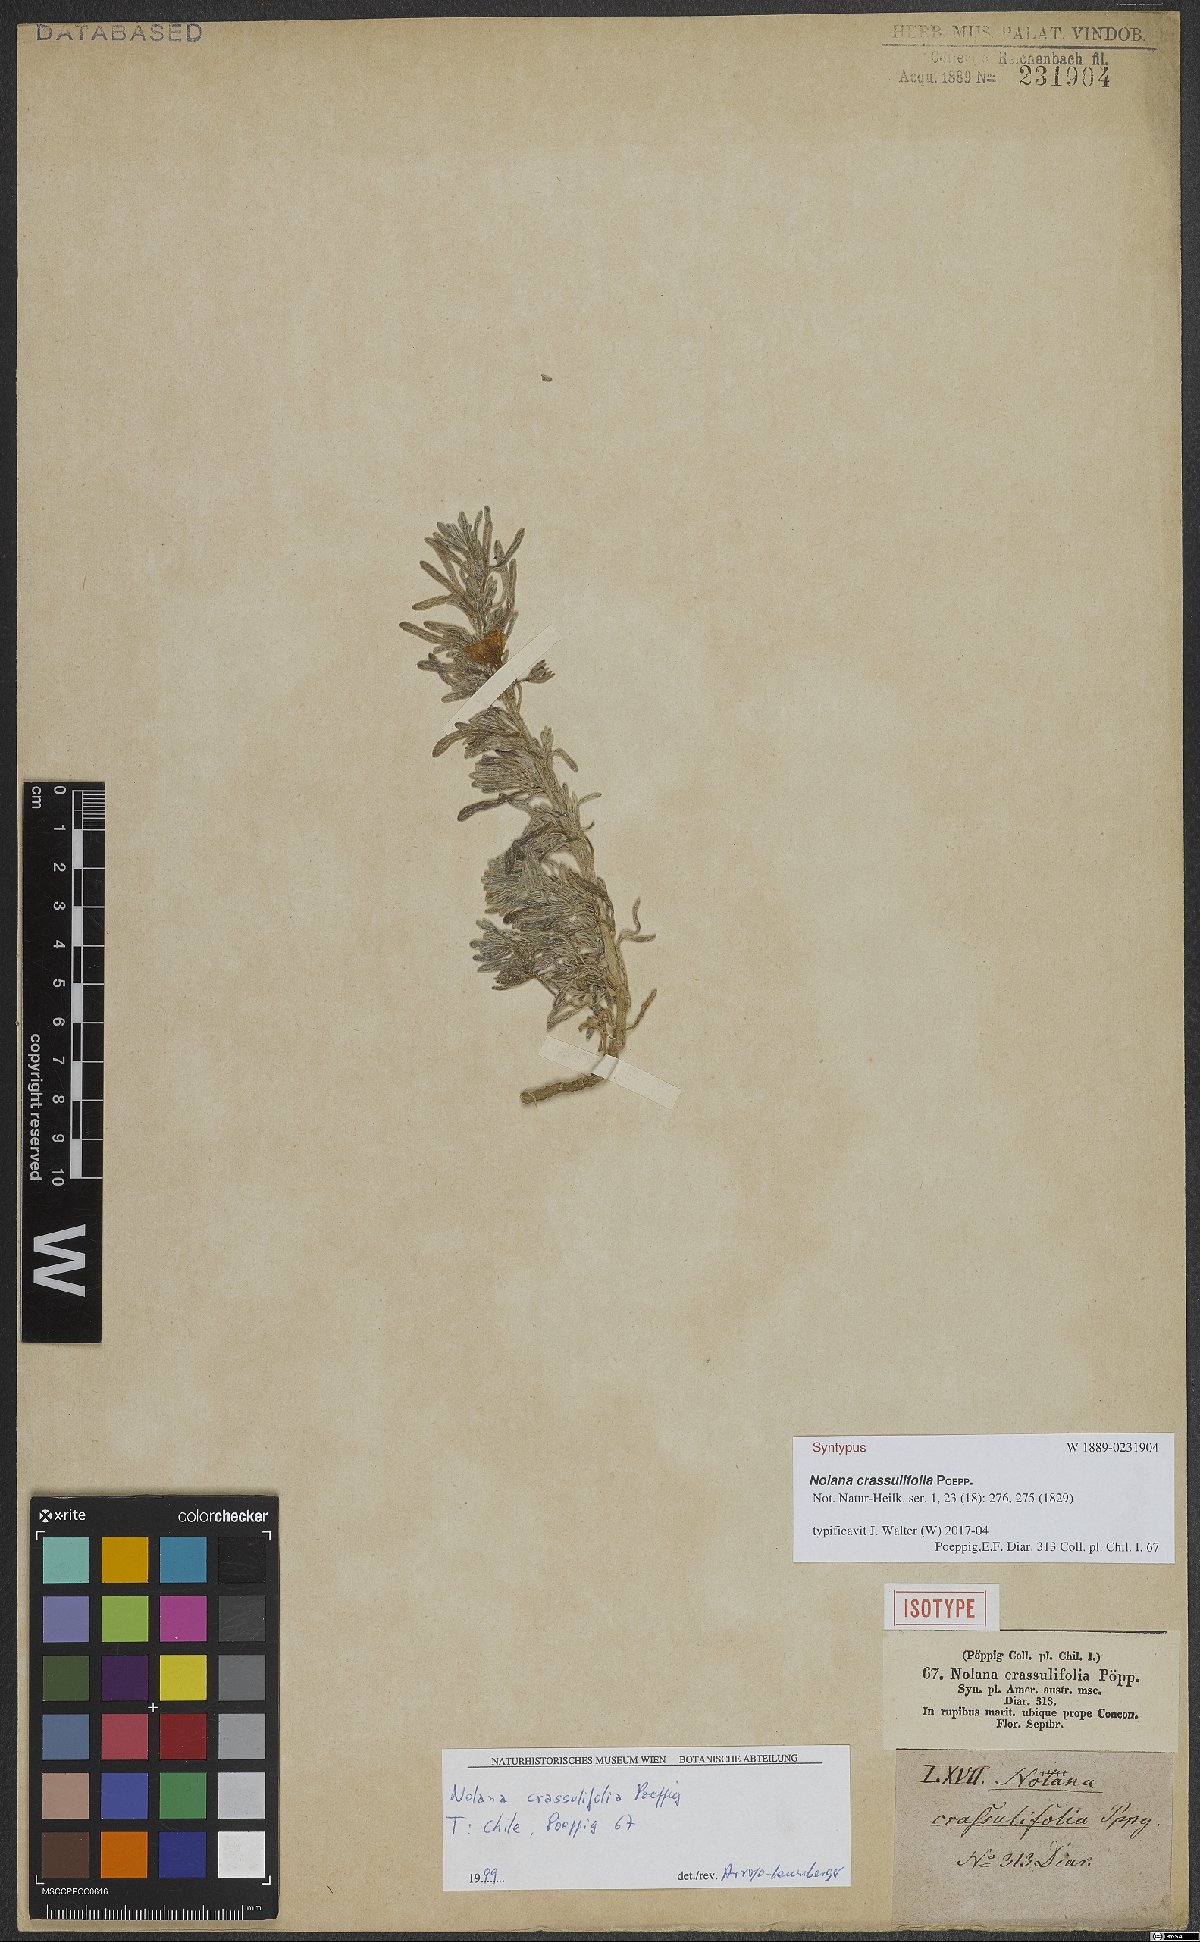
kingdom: Plantae
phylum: Tracheophyta
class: Magnoliopsida
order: Solanales
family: Solanaceae
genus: Nolana
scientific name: Nolana crassulifolia
